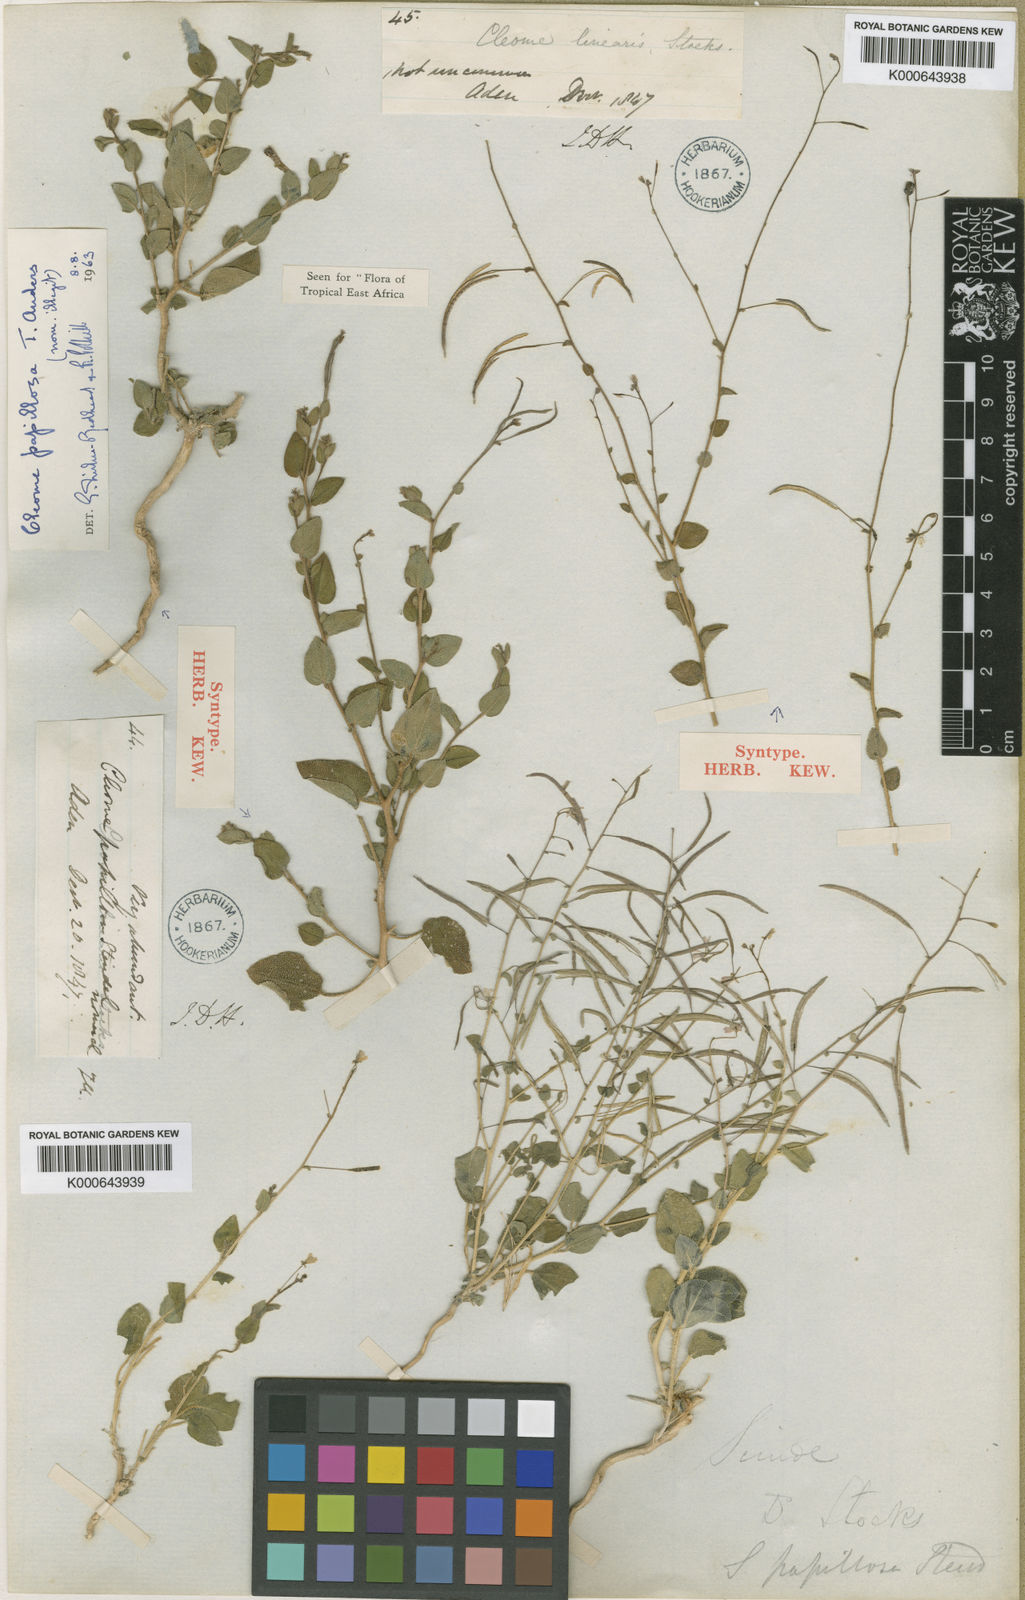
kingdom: Plantae
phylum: Tracheophyta
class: Magnoliopsida
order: Brassicales
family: Cleomaceae
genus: Gilgella
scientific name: Gilgella scaposa
